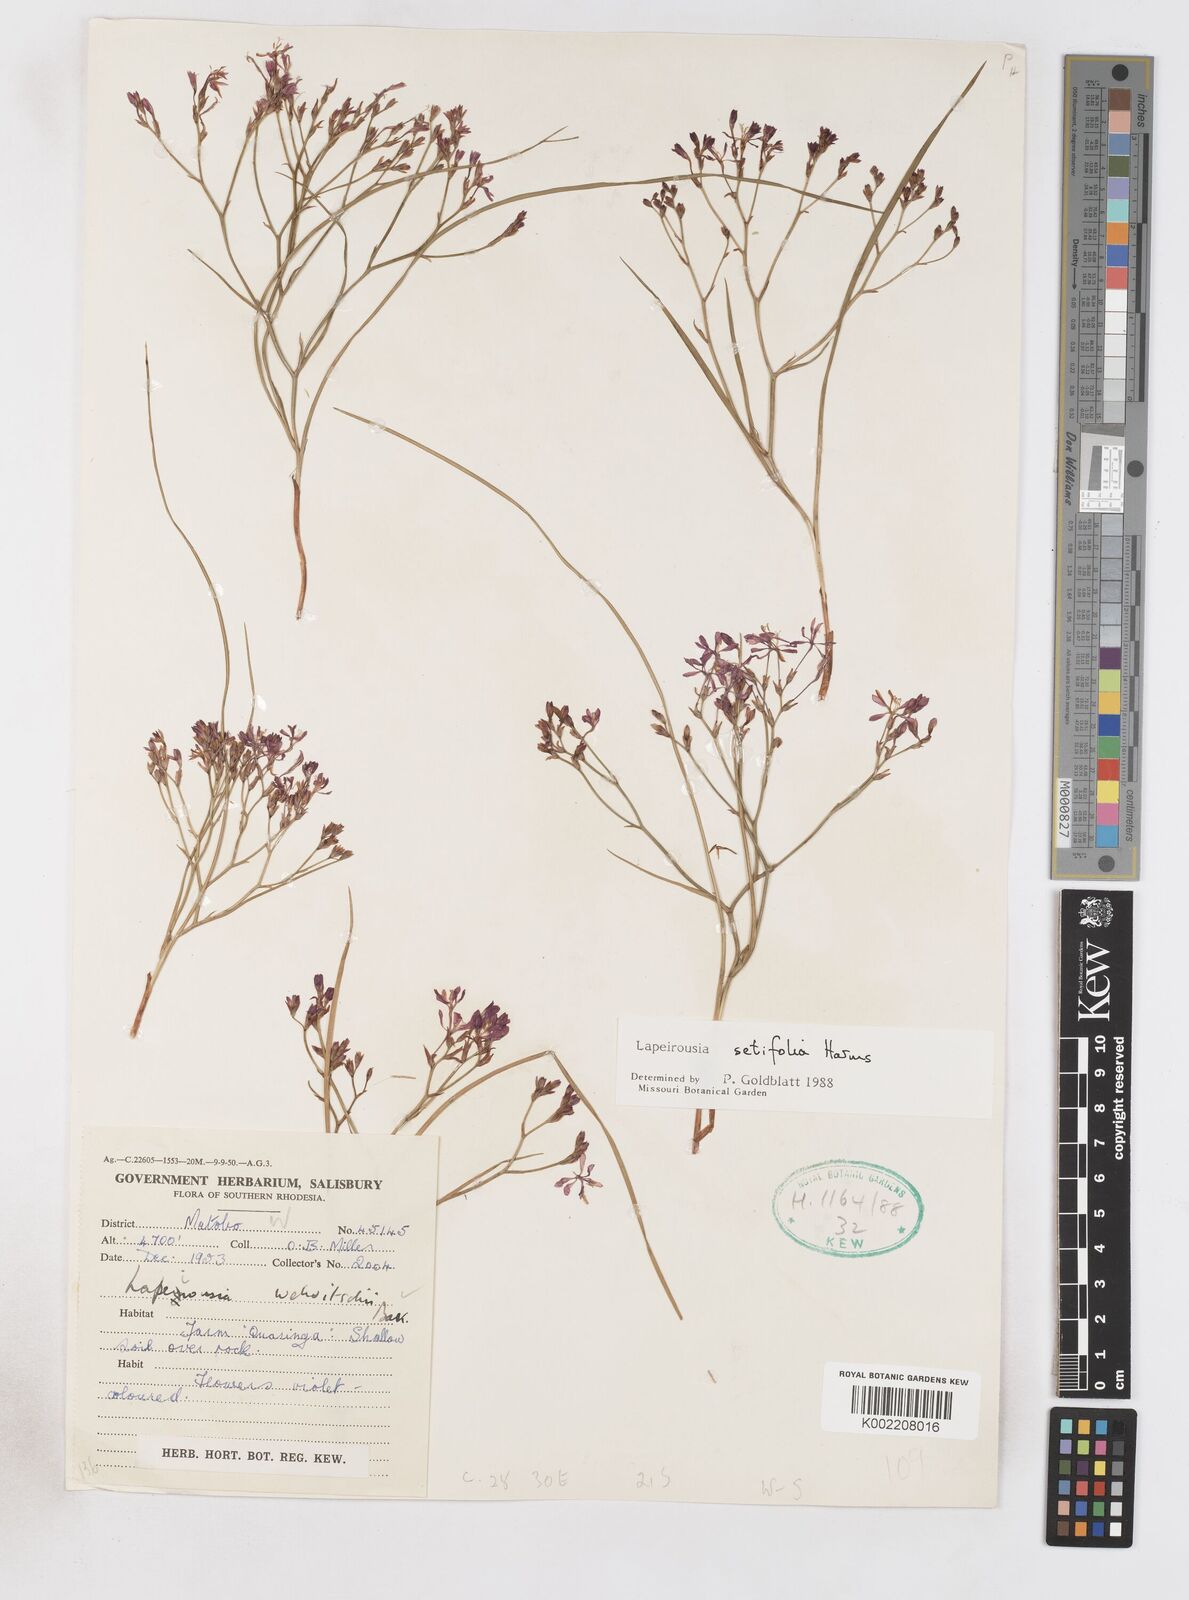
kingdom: Plantae
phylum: Tracheophyta
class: Liliopsida
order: Asparagales
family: Iridaceae
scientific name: Iridaceae
